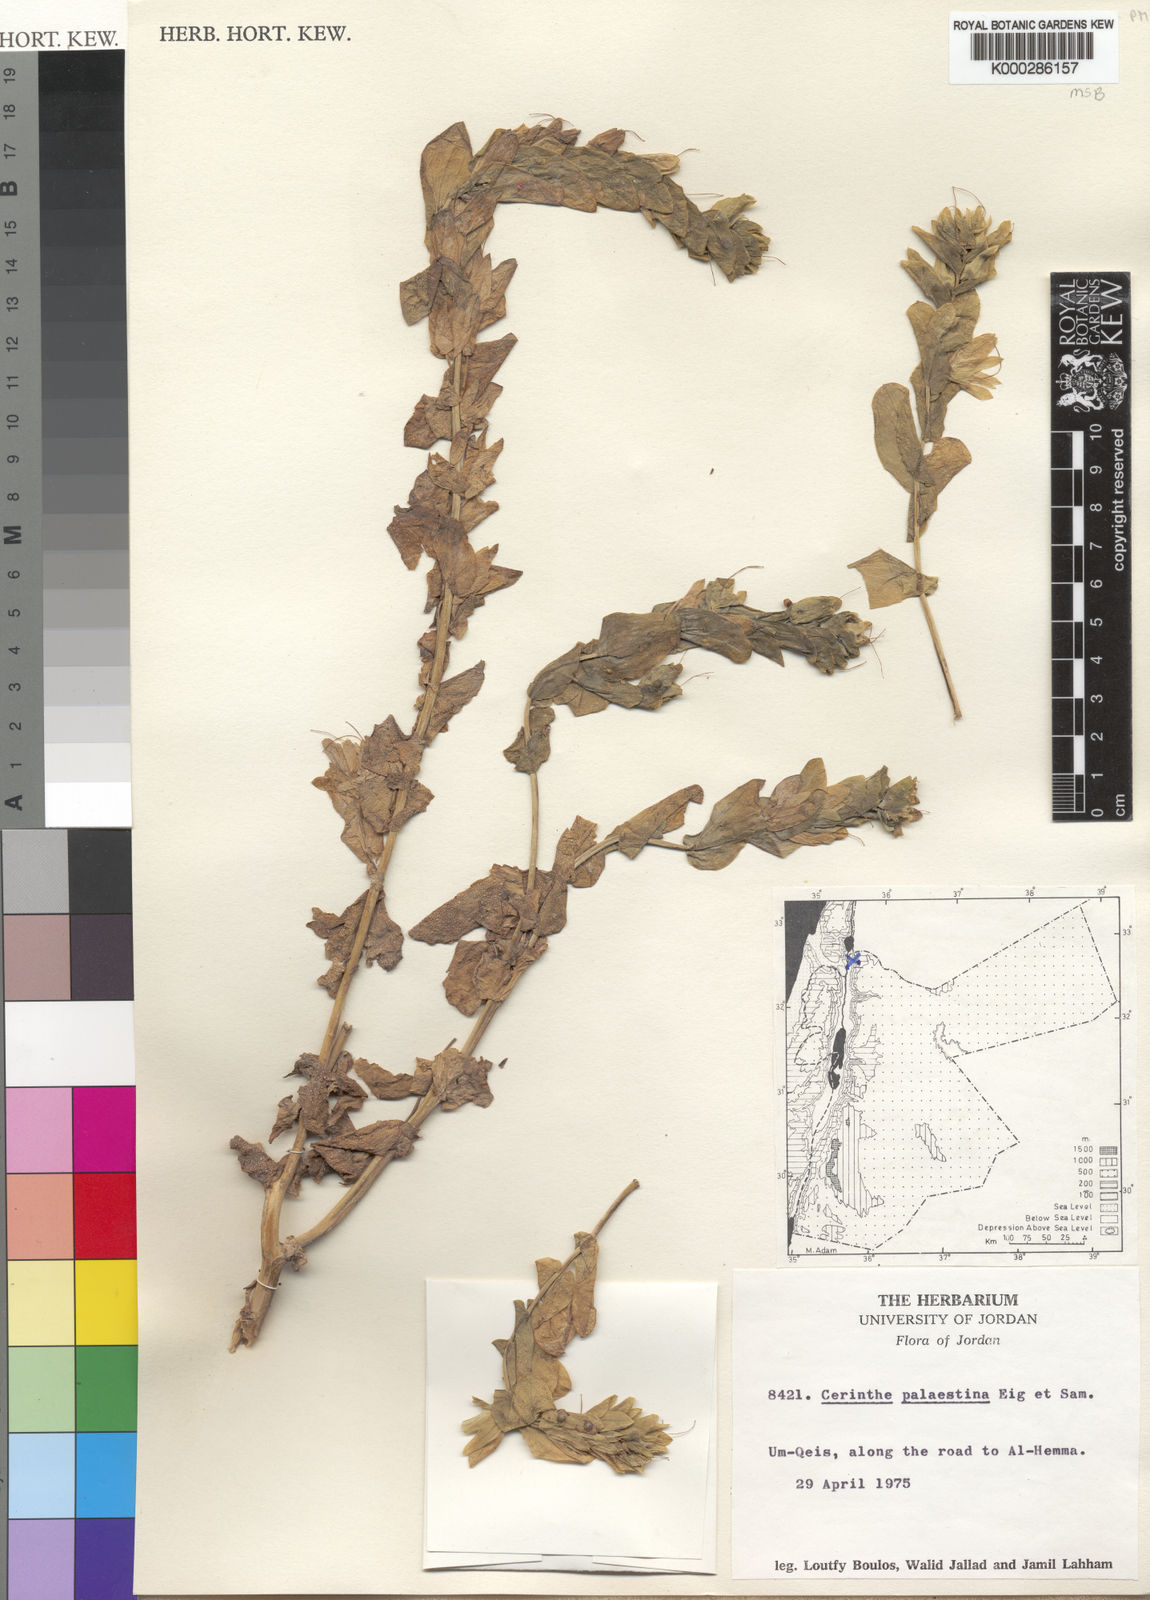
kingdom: Plantae
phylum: Tracheophyta
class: Magnoliopsida
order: Boraginales
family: Boraginaceae
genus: Cerinthe
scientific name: Cerinthe palaestina
